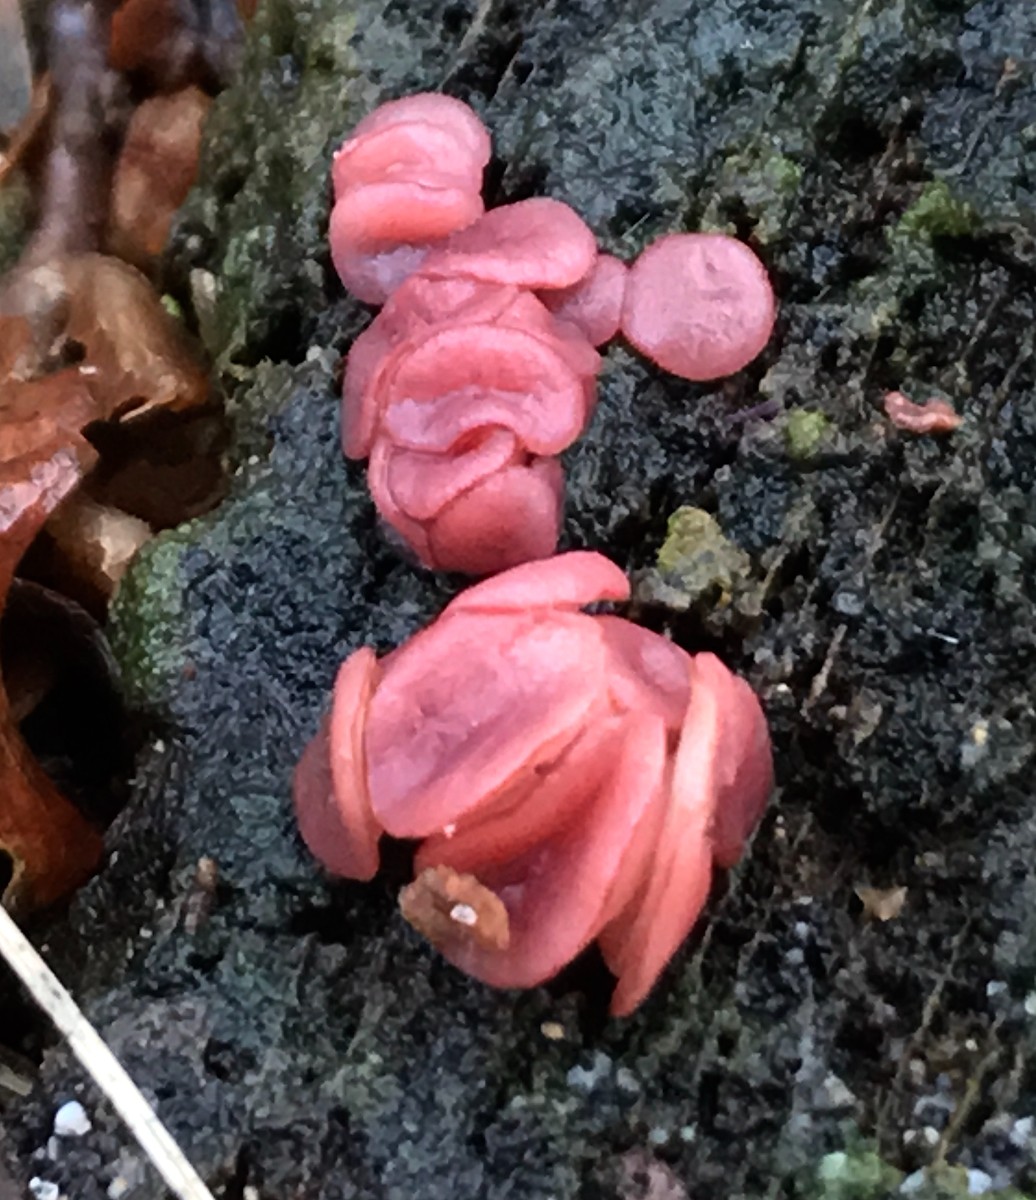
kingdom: Fungi
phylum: Ascomycota
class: Leotiomycetes
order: Helotiales
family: Gelatinodiscaceae
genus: Ascocoryne
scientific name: Ascocoryne sarcoides
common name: rødlilla sejskive
